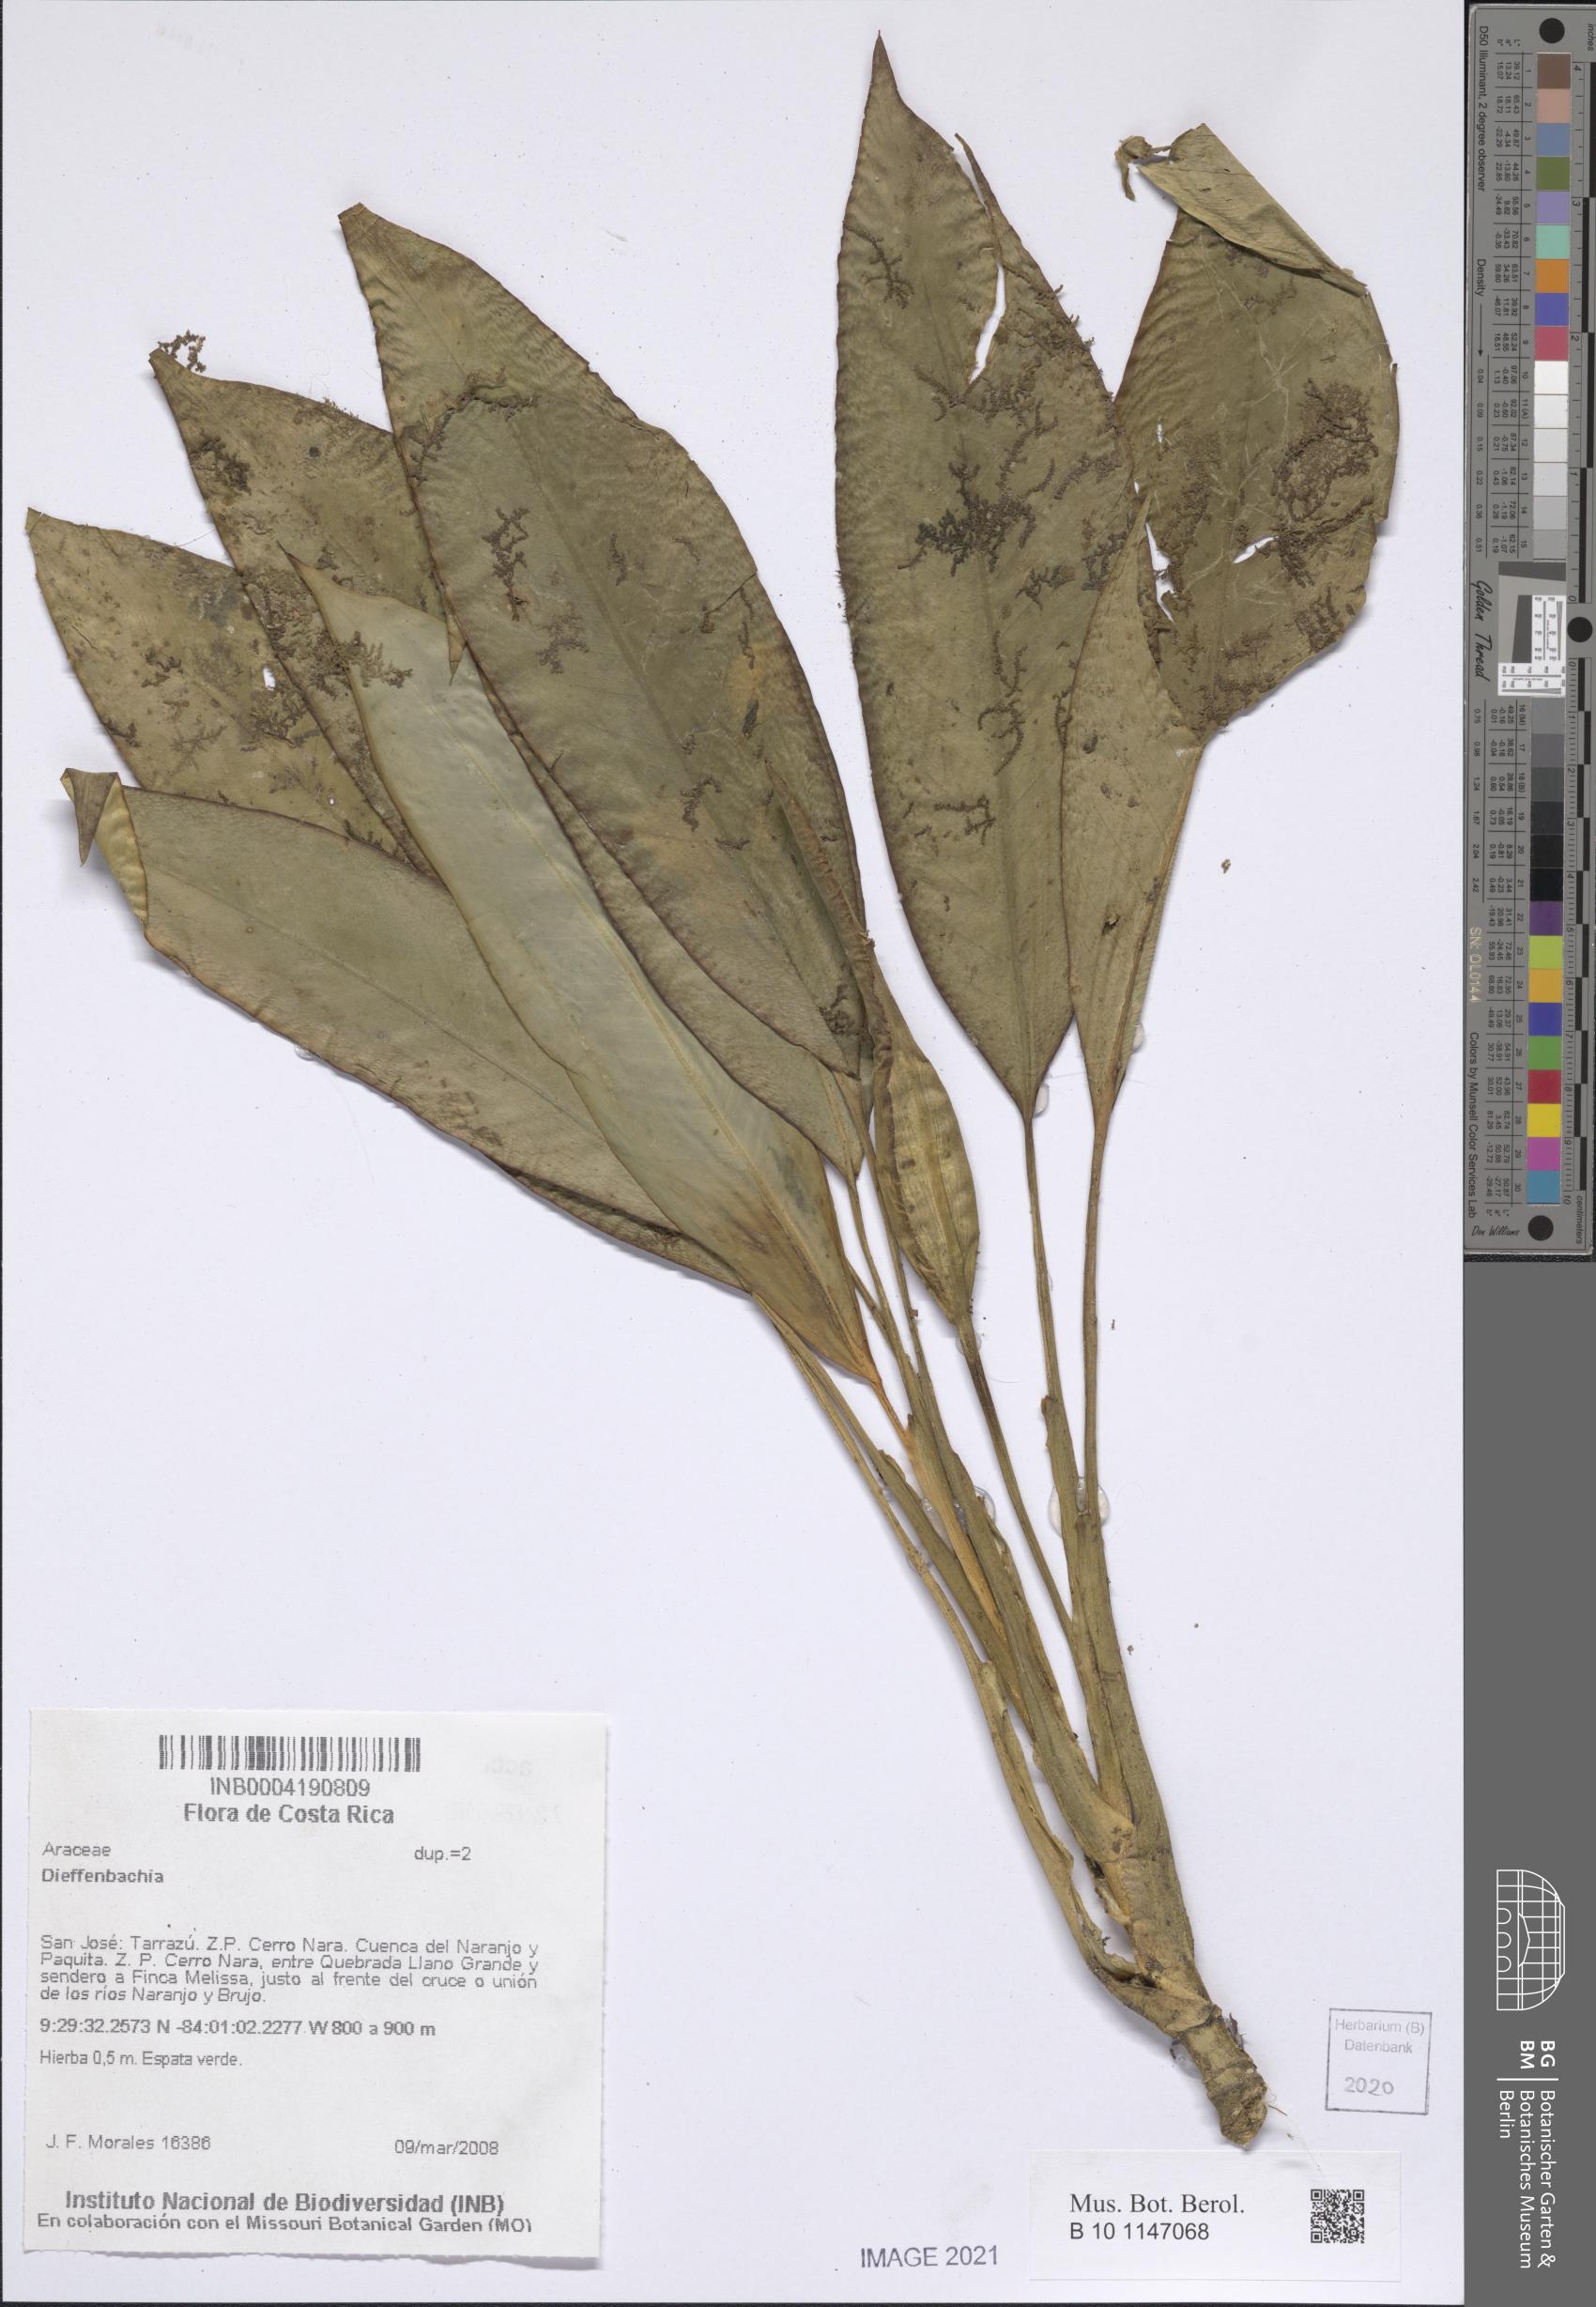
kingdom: Plantae
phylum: Tracheophyta
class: Liliopsida
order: Alismatales
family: Araceae
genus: Dieffenbachia
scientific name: Dieffenbachia
